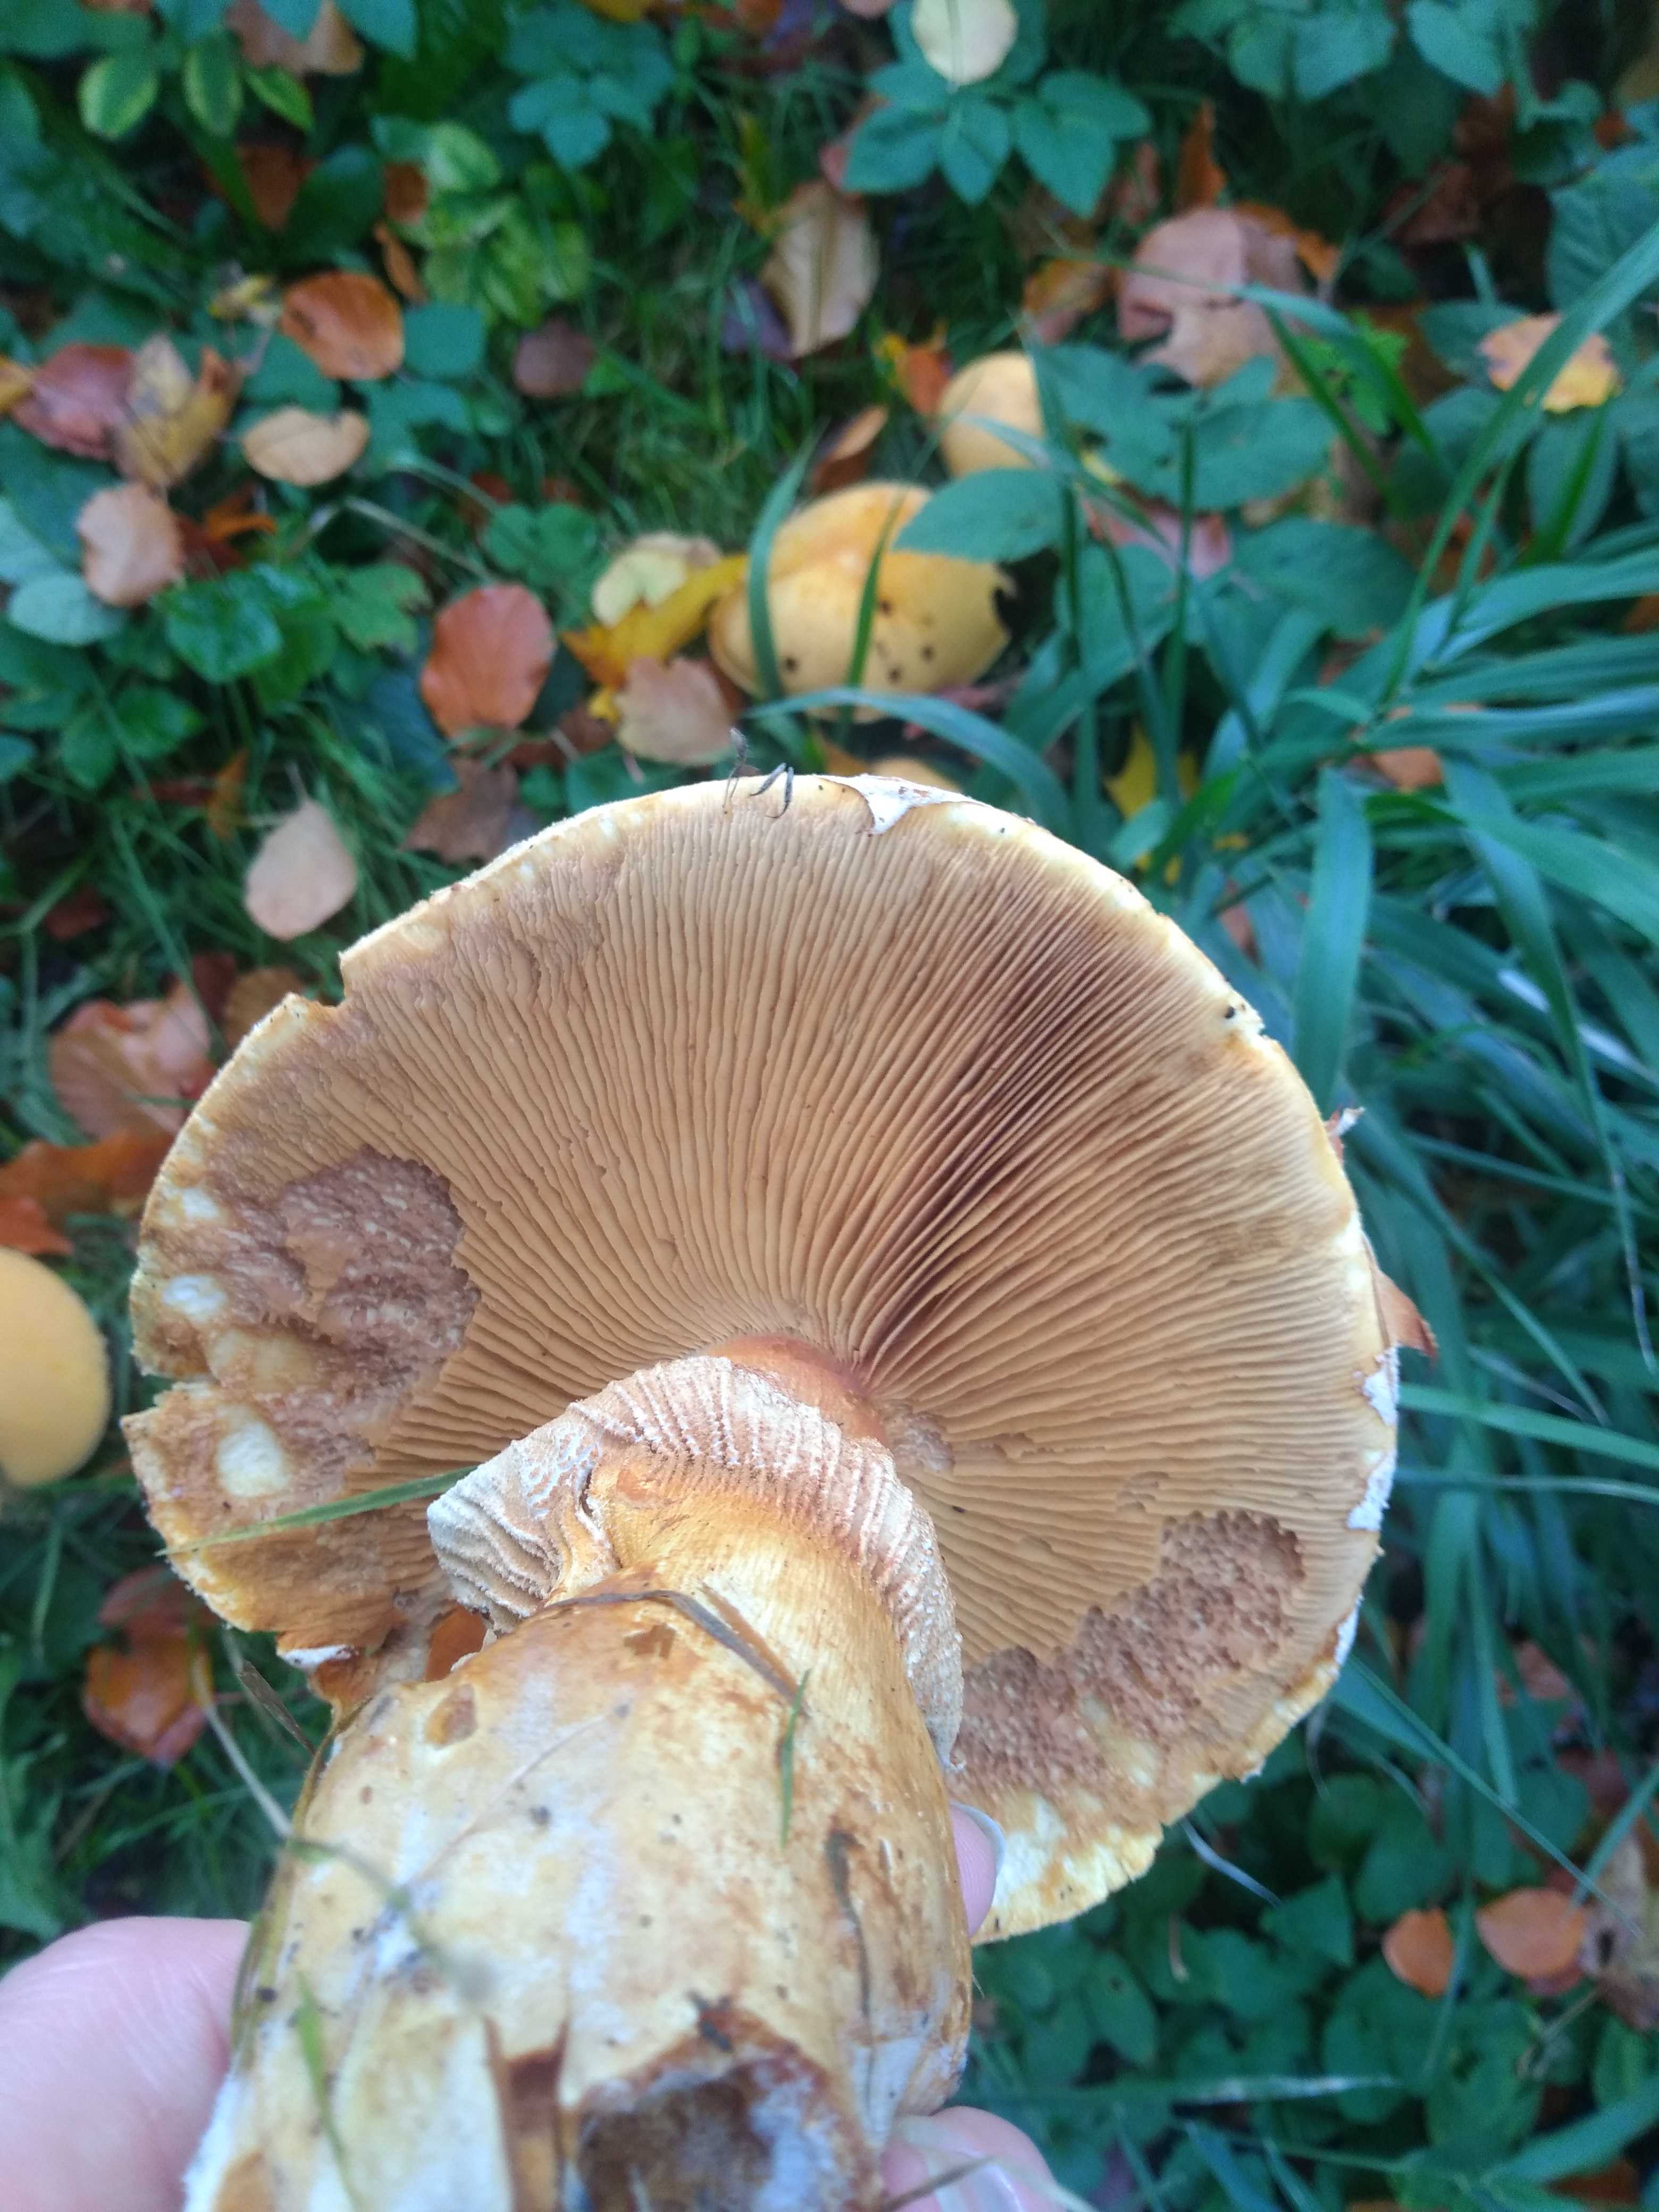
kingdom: Fungi
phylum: Basidiomycota
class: Agaricomycetes
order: Agaricales
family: Tricholomataceae
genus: Phaeolepiota
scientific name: Phaeolepiota aurea
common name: gyldenhat
